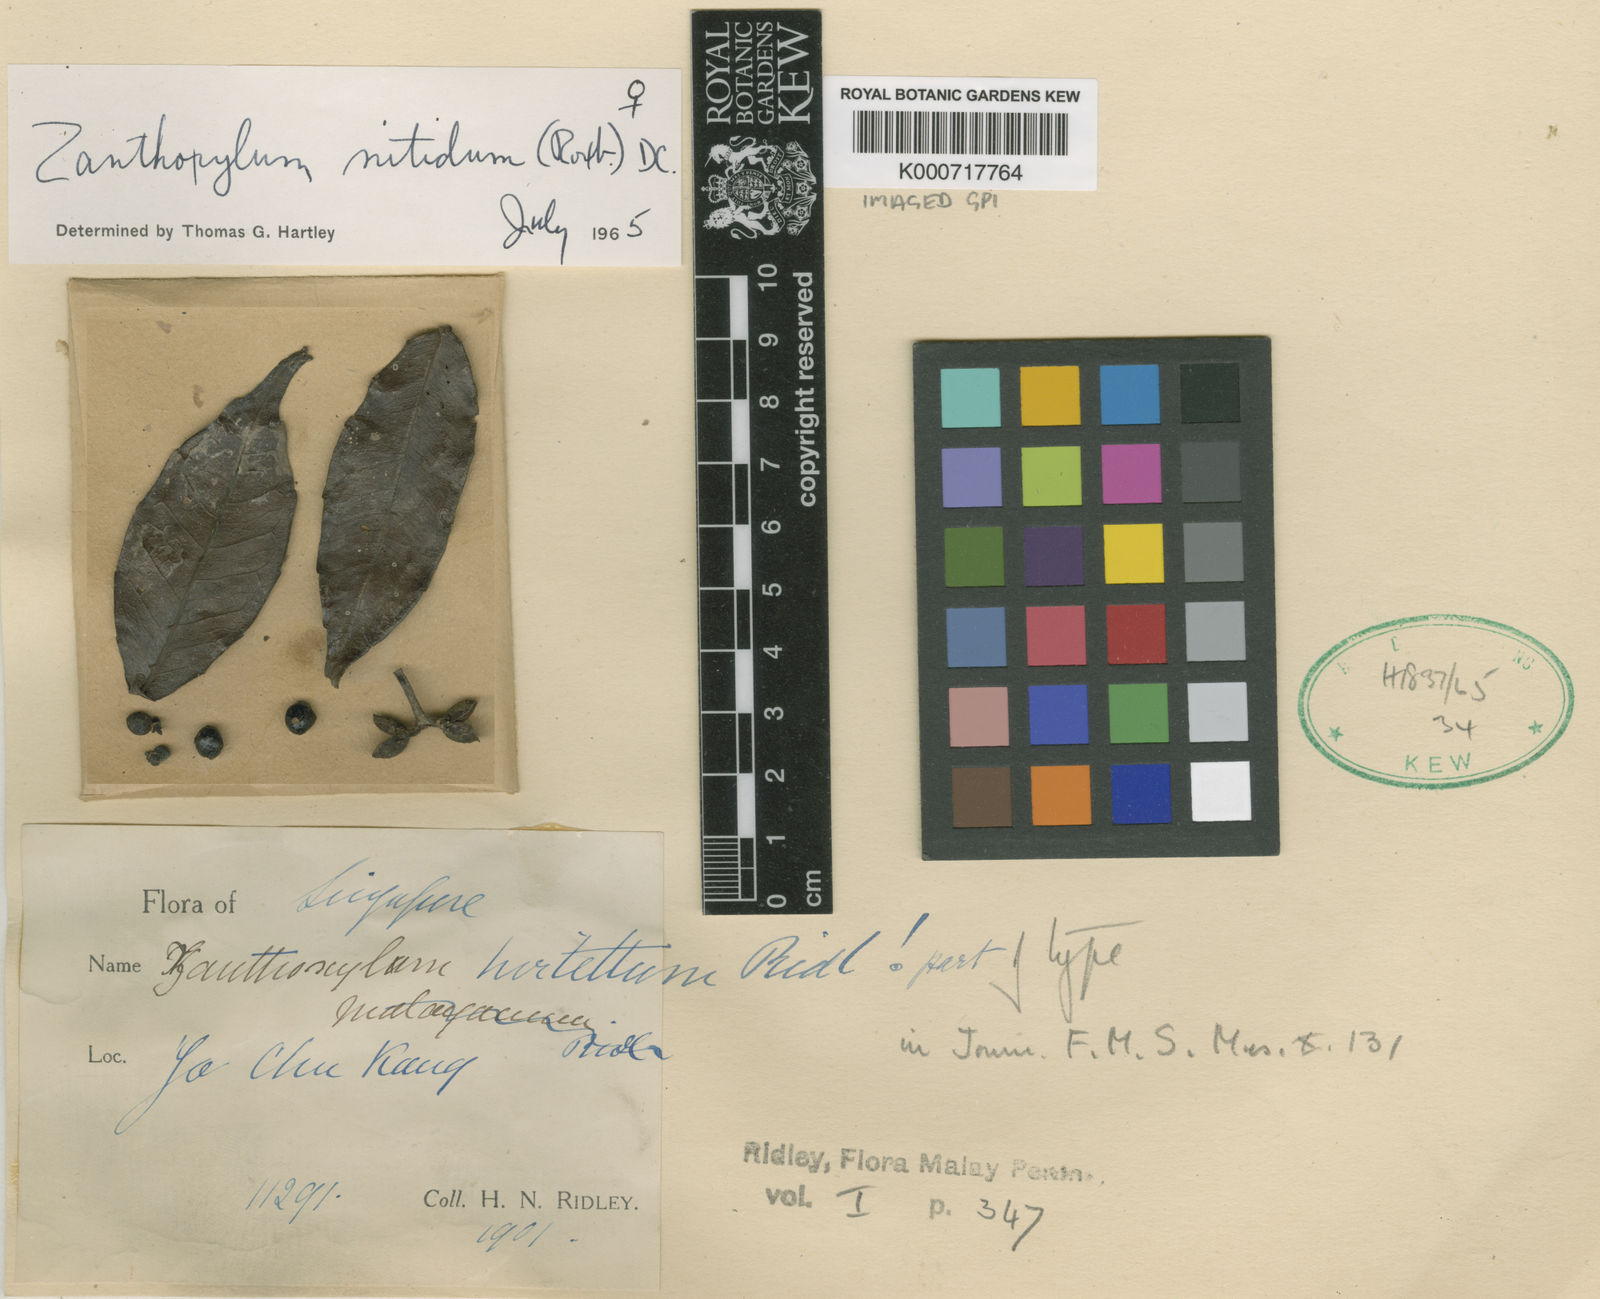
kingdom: Plantae
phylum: Tracheophyta
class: Magnoliopsida
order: Sapindales
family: Rutaceae
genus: Zanthoxylum
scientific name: Zanthoxylum nitidum
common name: Shiny-leaf prickly-ash
